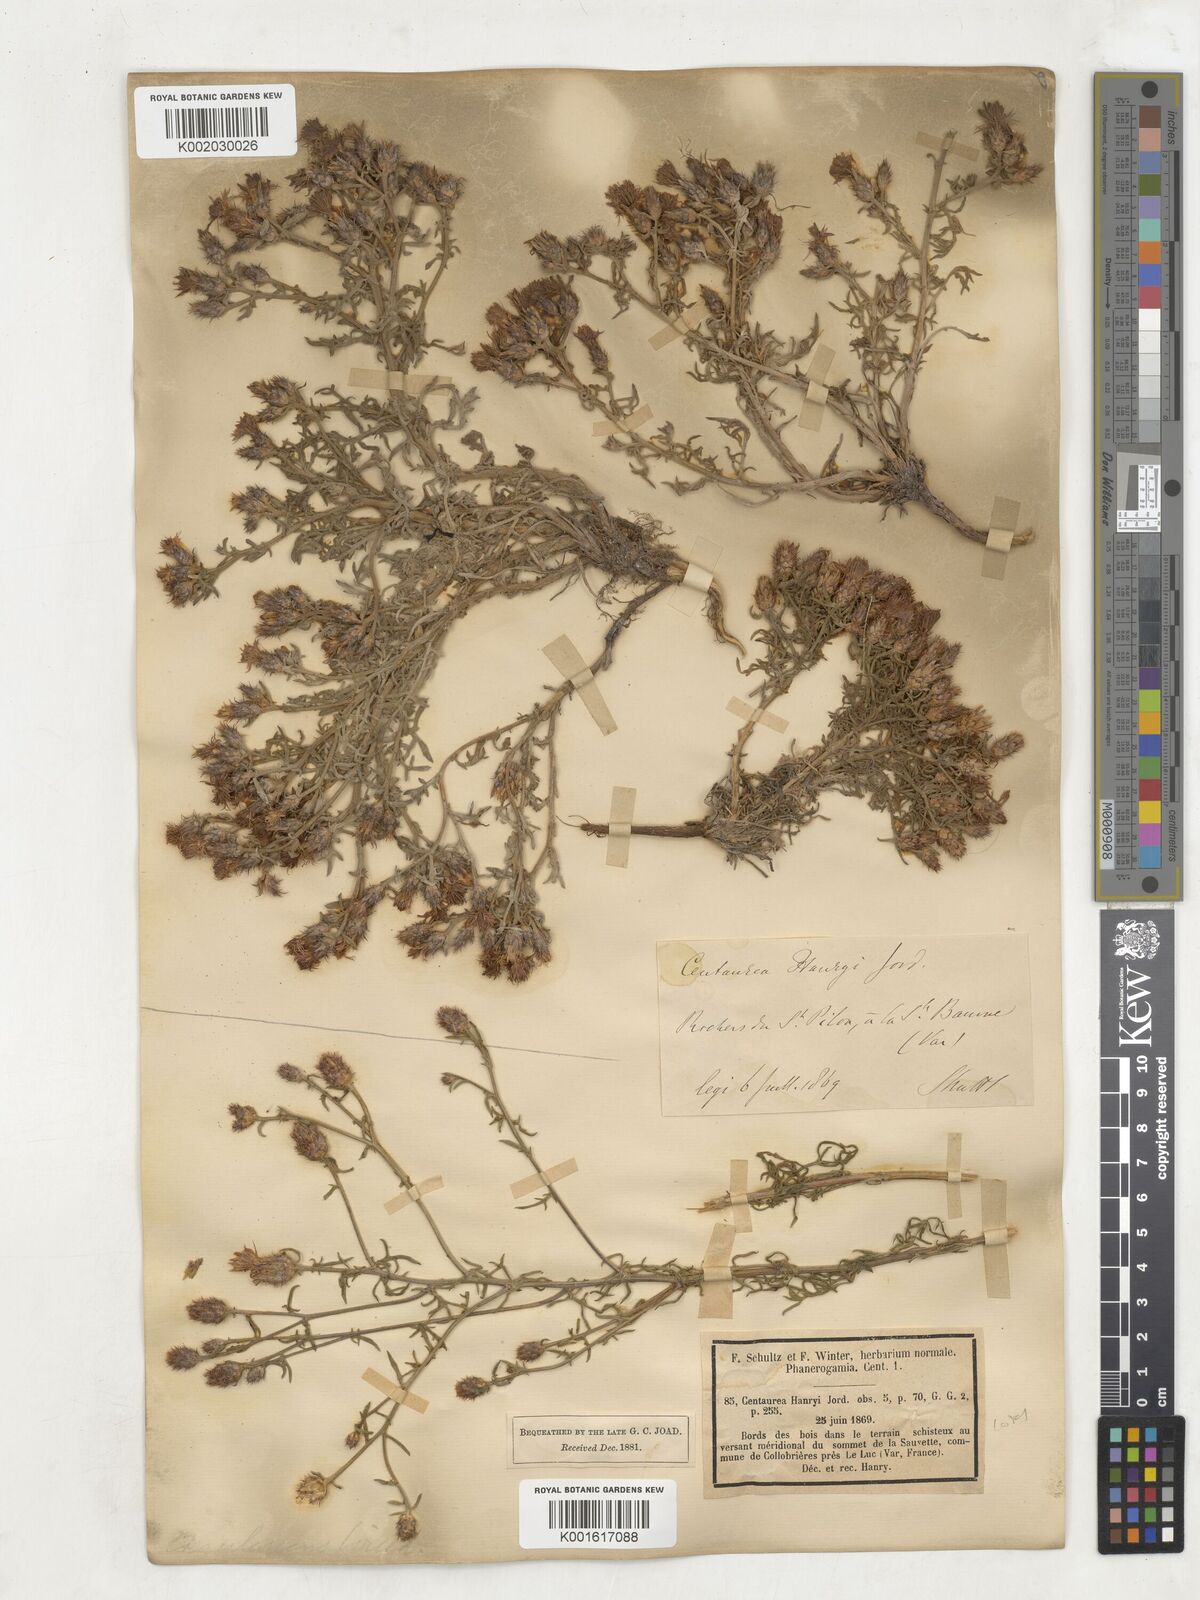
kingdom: Plantae
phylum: Tracheophyta
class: Magnoliopsida
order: Asterales
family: Asteraceae
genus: Centaurea
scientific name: Centaurea hanryi
